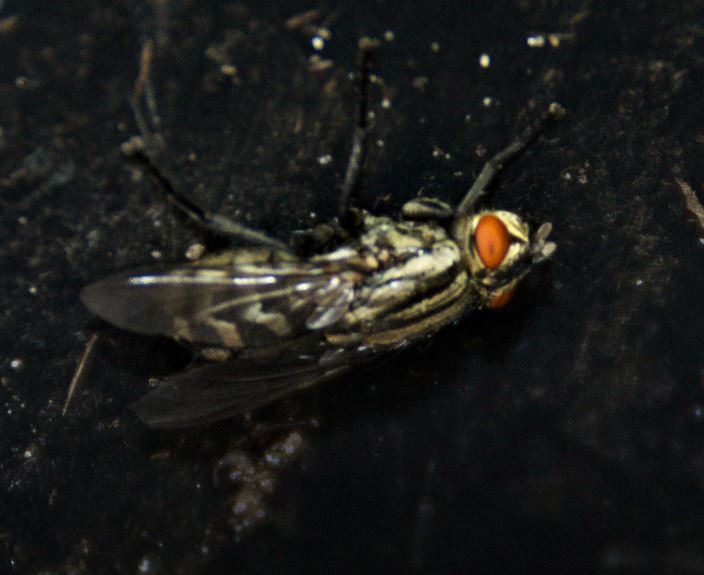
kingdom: Animalia
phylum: Arthropoda
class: Insecta
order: Diptera
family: Sarcophagidae
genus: Sarcophaga
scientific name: Sarcophaga
